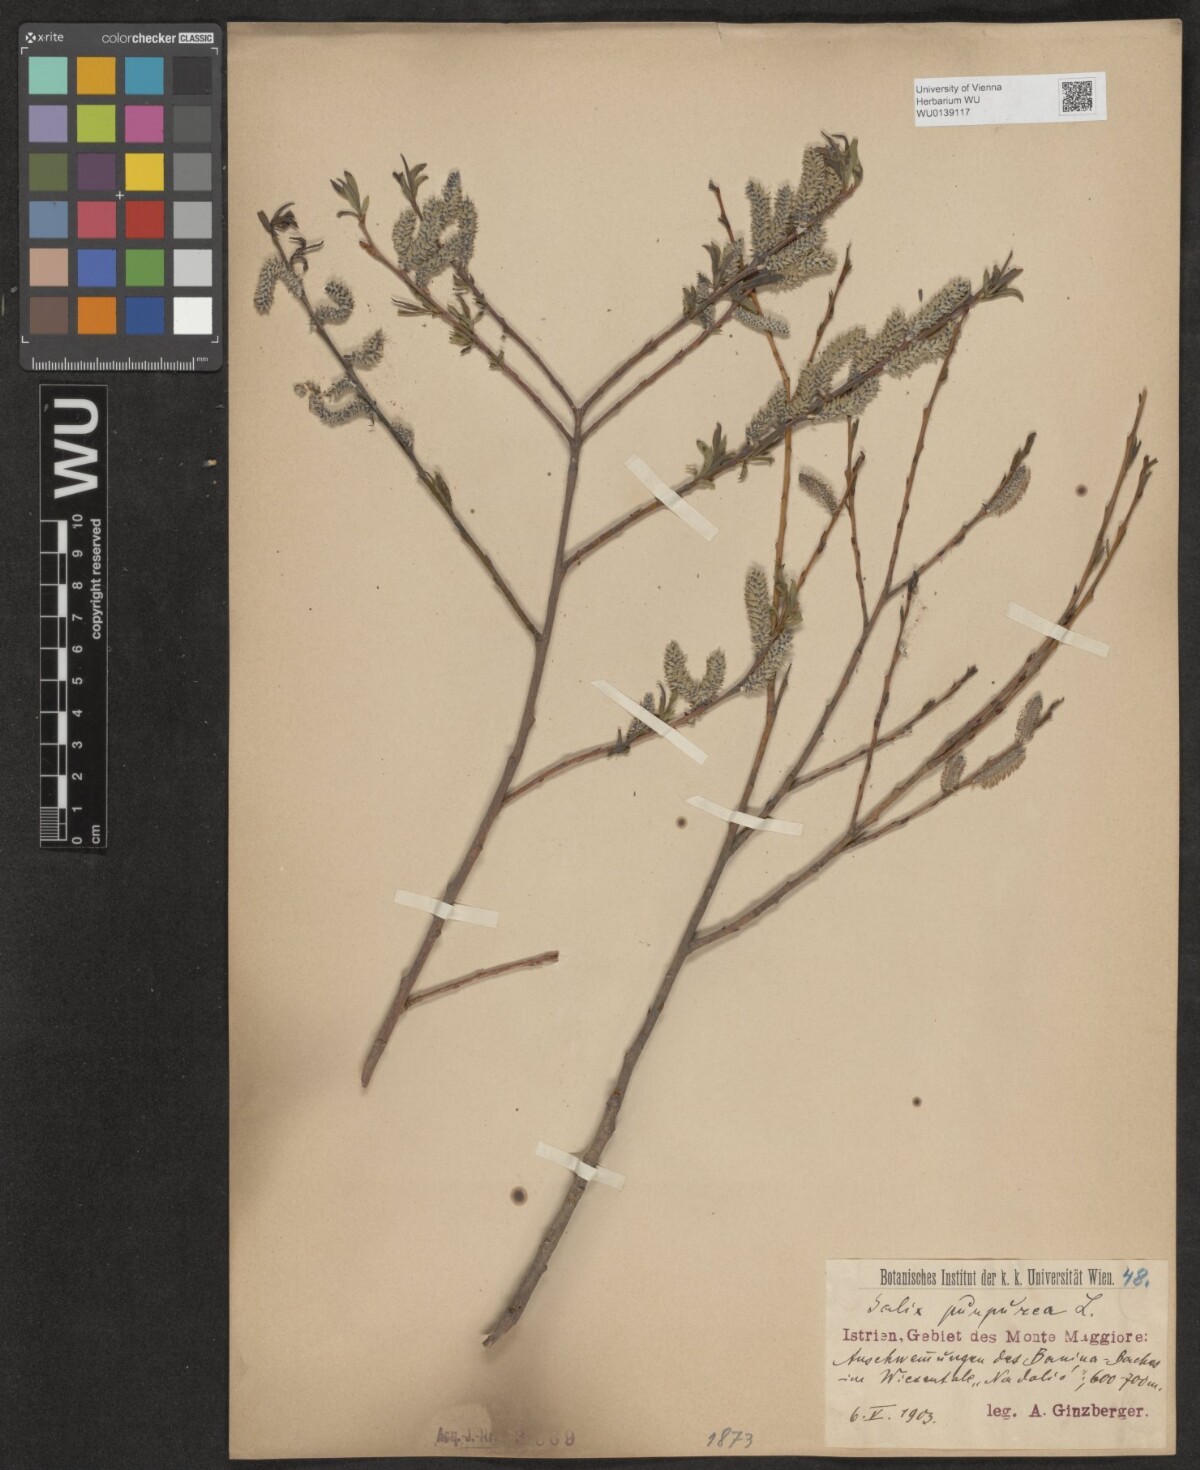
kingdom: Plantae
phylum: Tracheophyta
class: Magnoliopsida
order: Malpighiales
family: Salicaceae
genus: Salix
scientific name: Salix purpurea
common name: Purple willow
